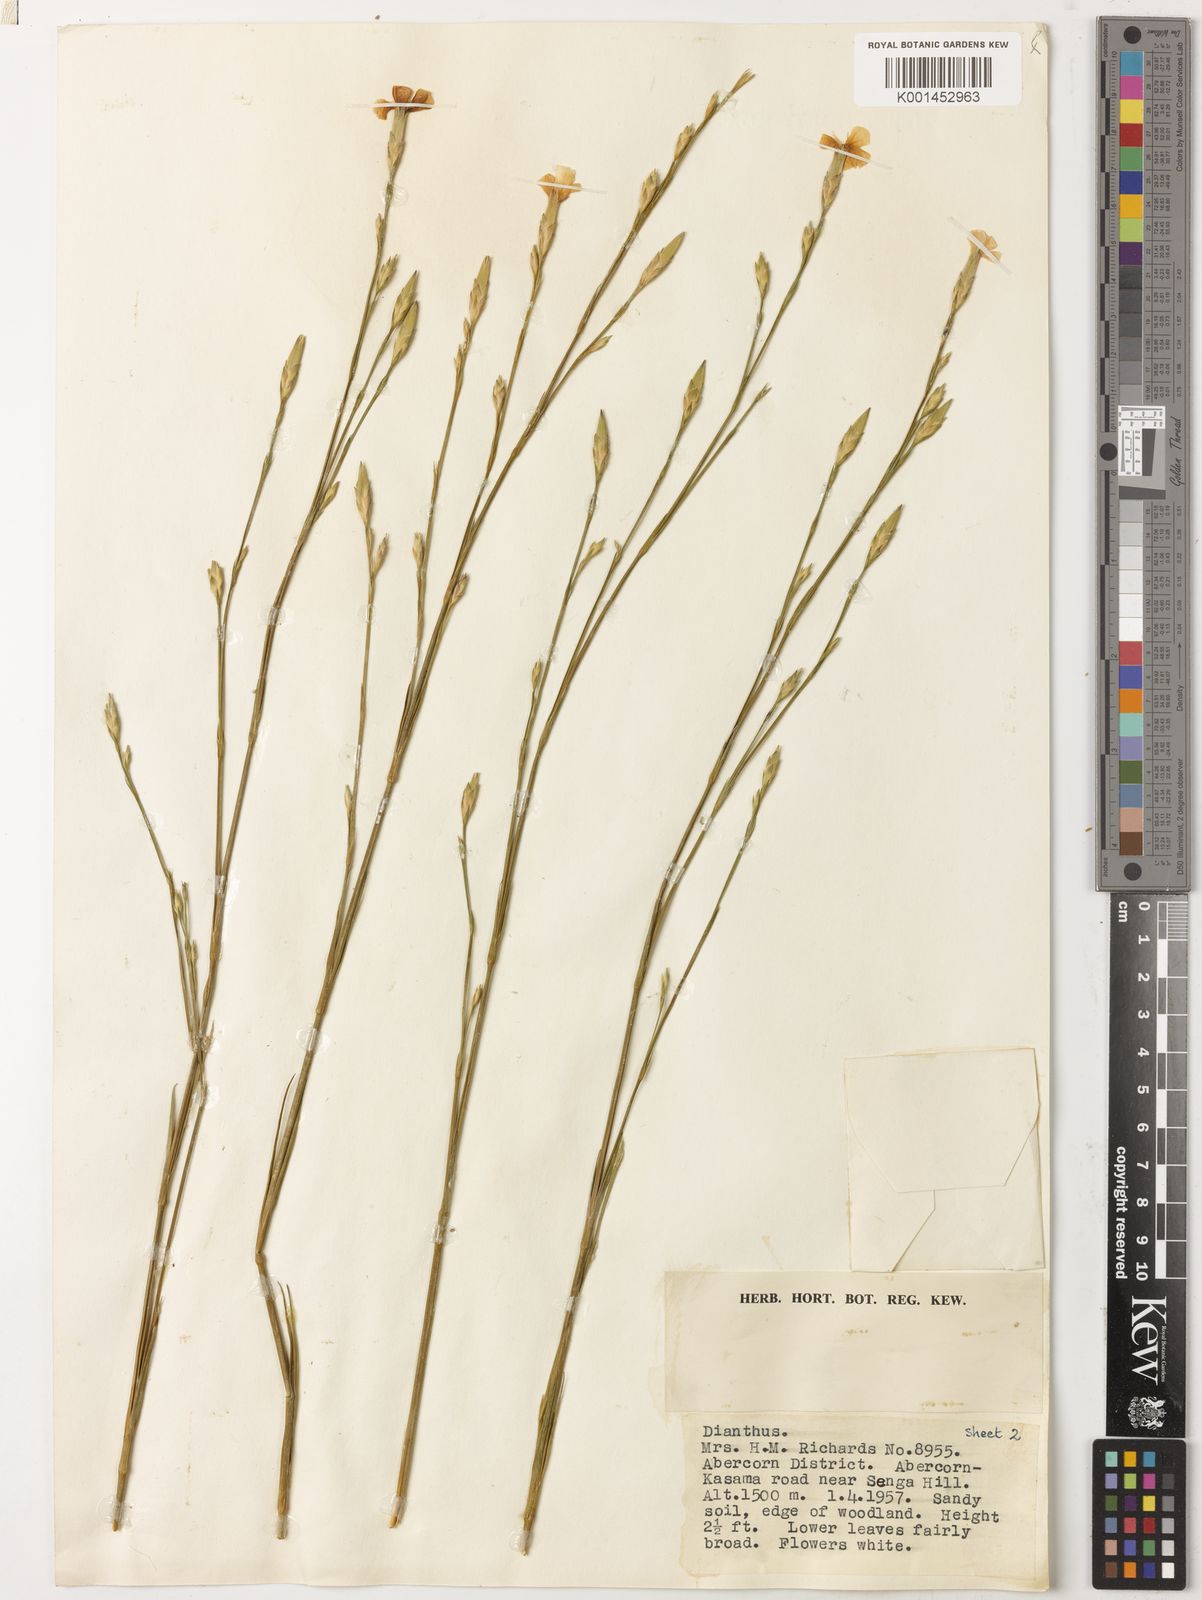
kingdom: Plantae
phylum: Tracheophyta
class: Magnoliopsida
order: Caryophyllales
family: Caryophyllaceae
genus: Dianthus
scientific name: Dianthus angolensis
